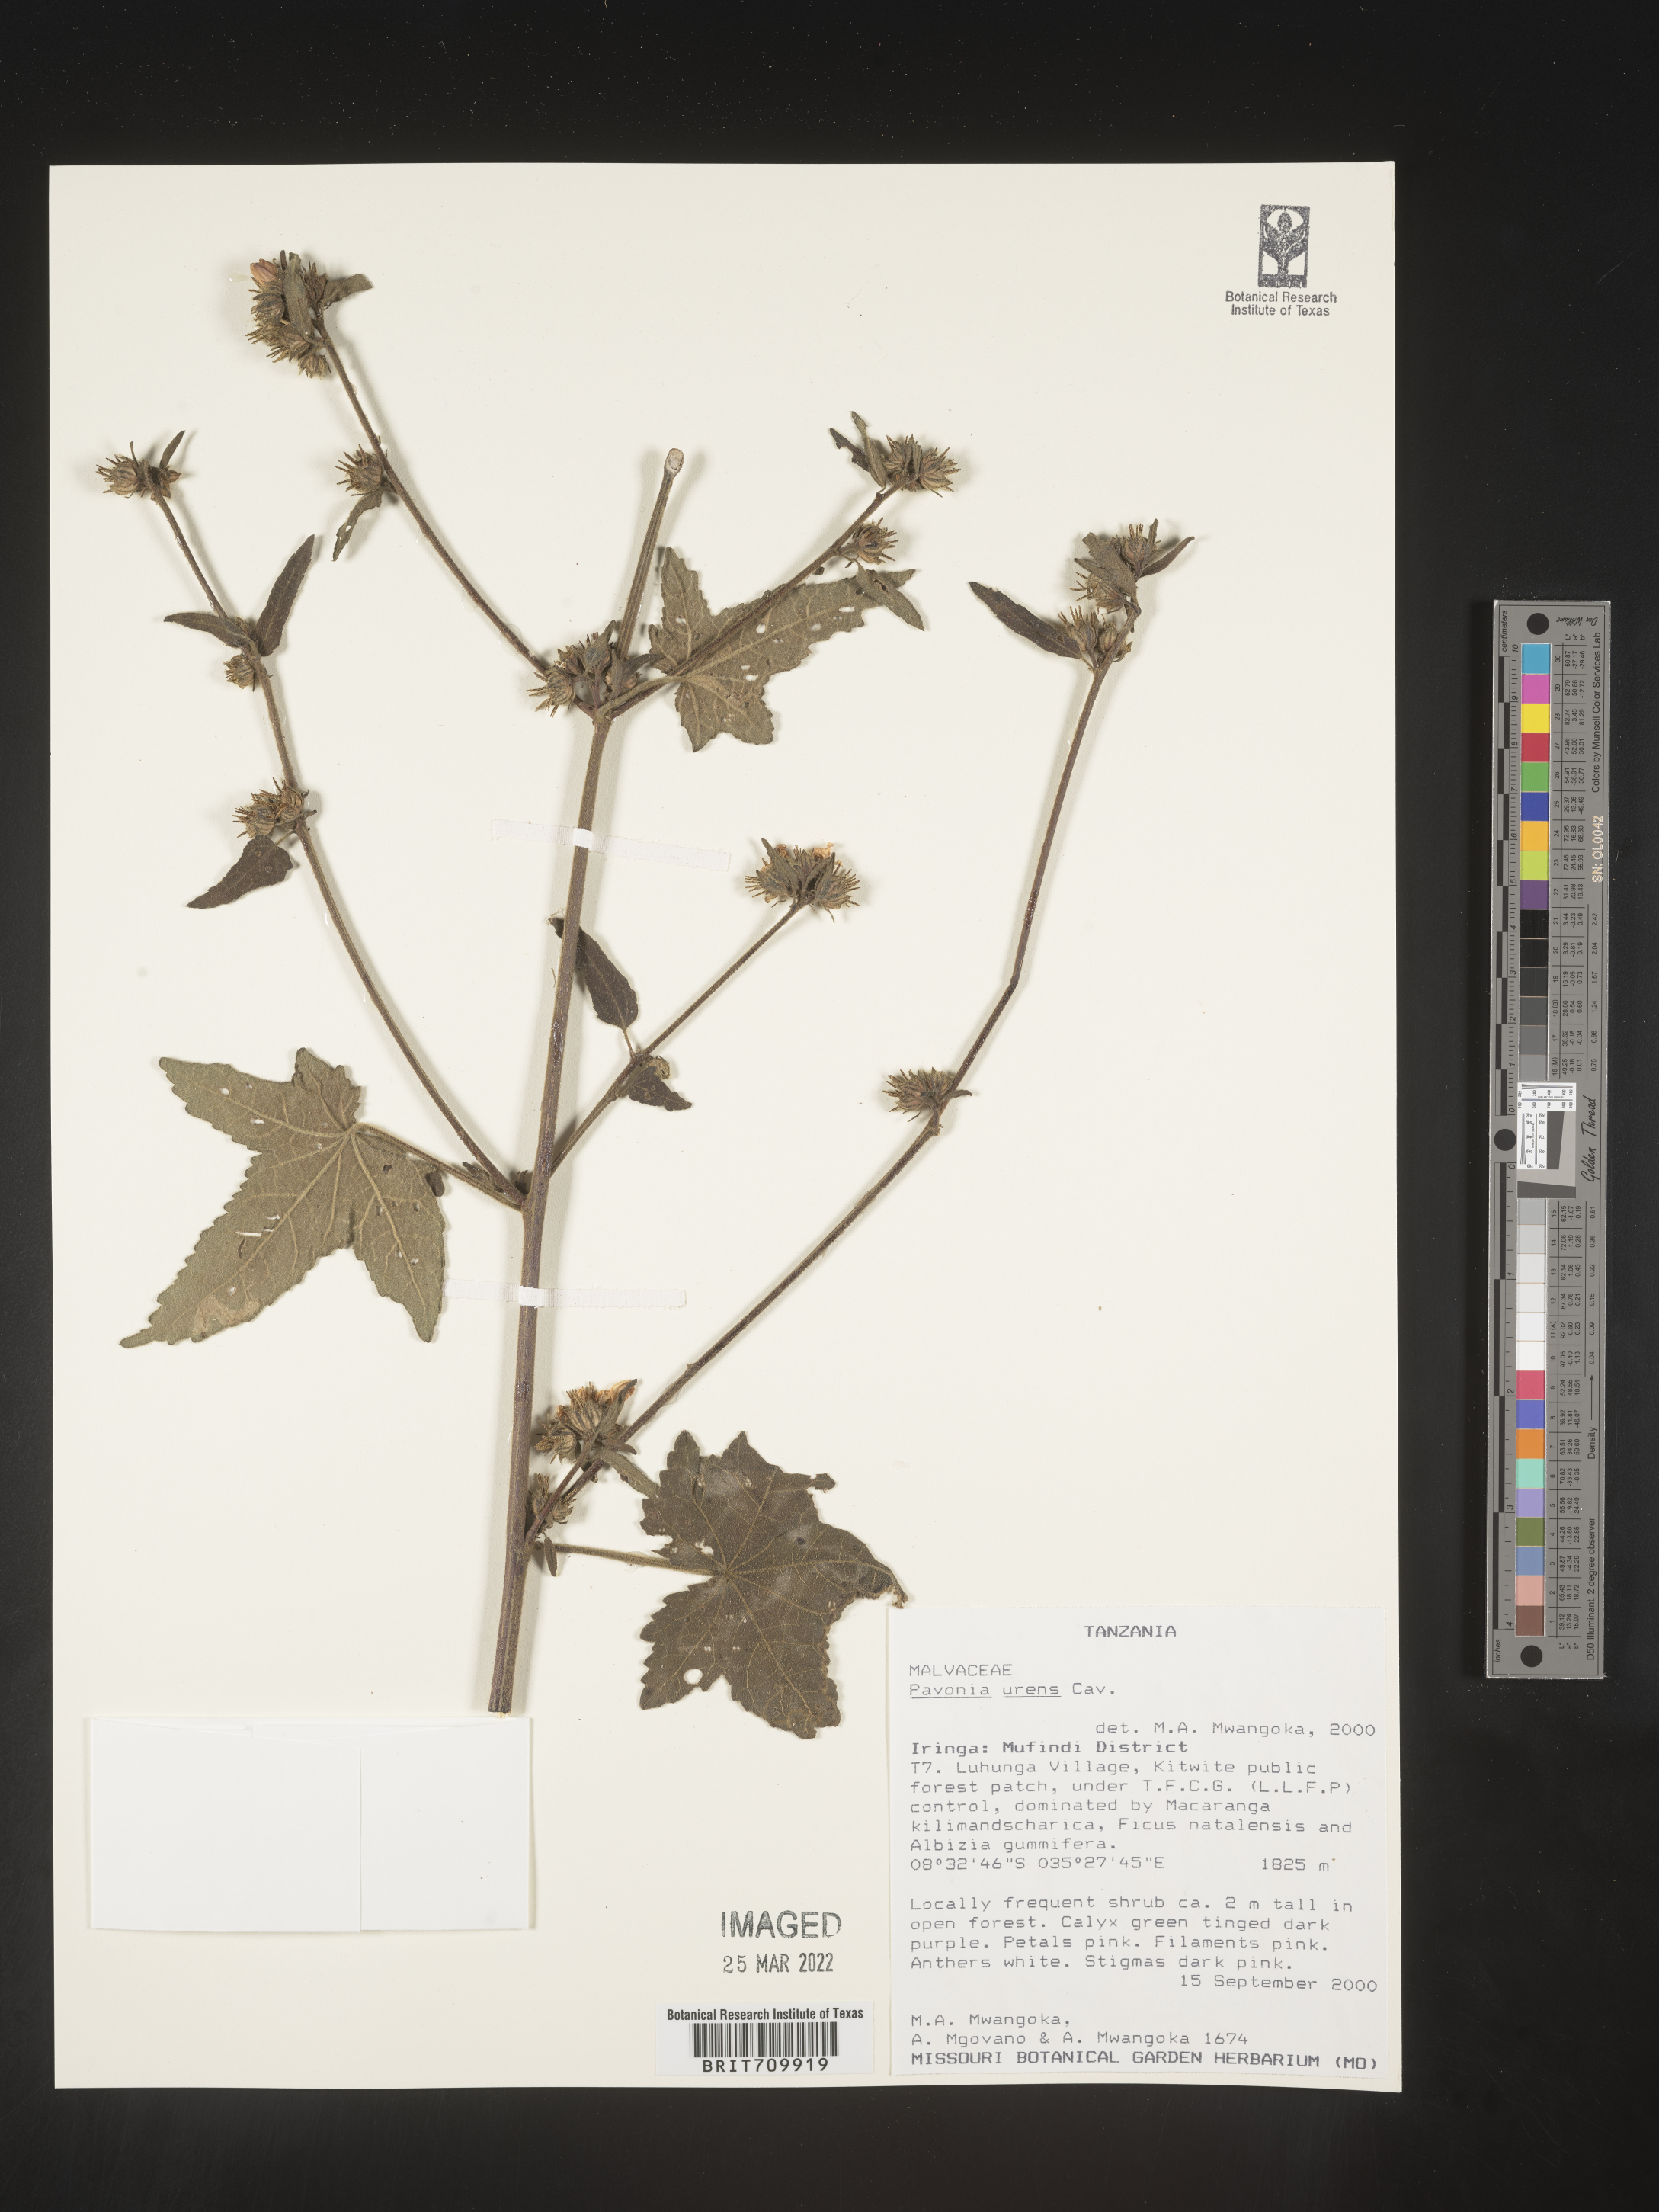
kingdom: Plantae
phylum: Tracheophyta
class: Magnoliopsida
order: Malvales
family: Malvaceae
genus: Pavonia
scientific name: Pavonia
